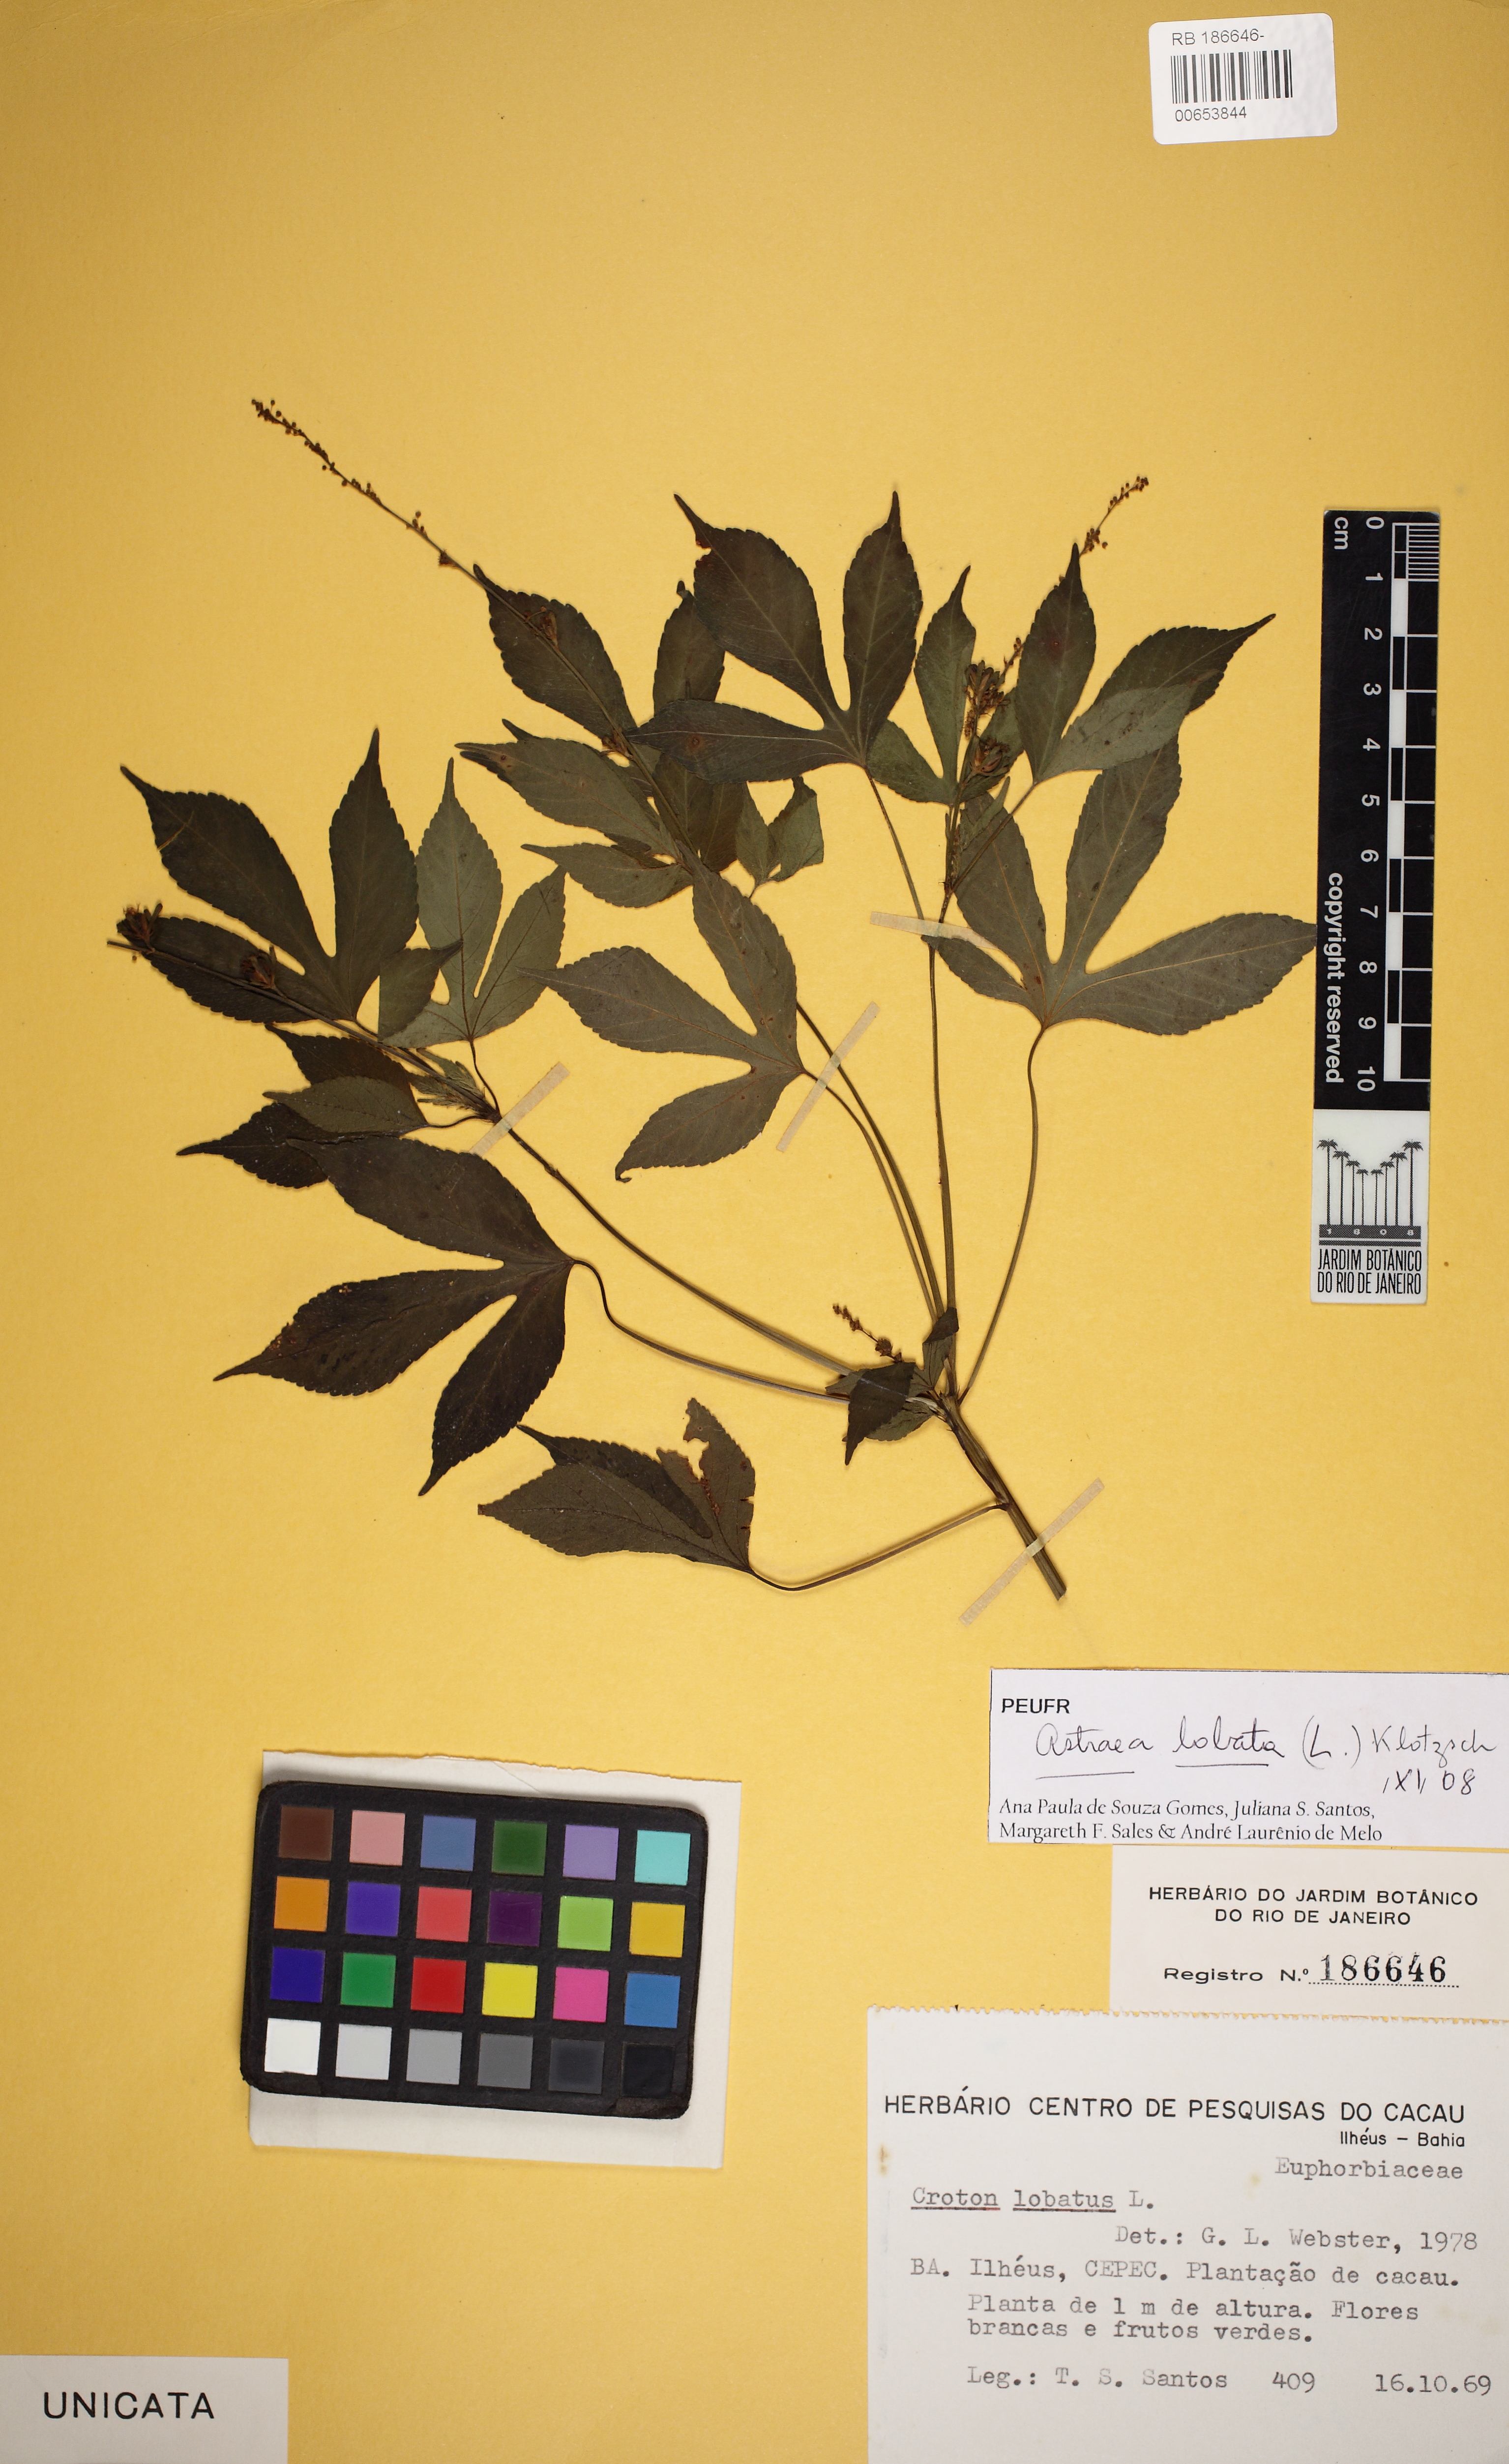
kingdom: Plantae
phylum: Tracheophyta
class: Magnoliopsida
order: Malpighiales
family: Euphorbiaceae
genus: Astraea
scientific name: Astraea gracilis
